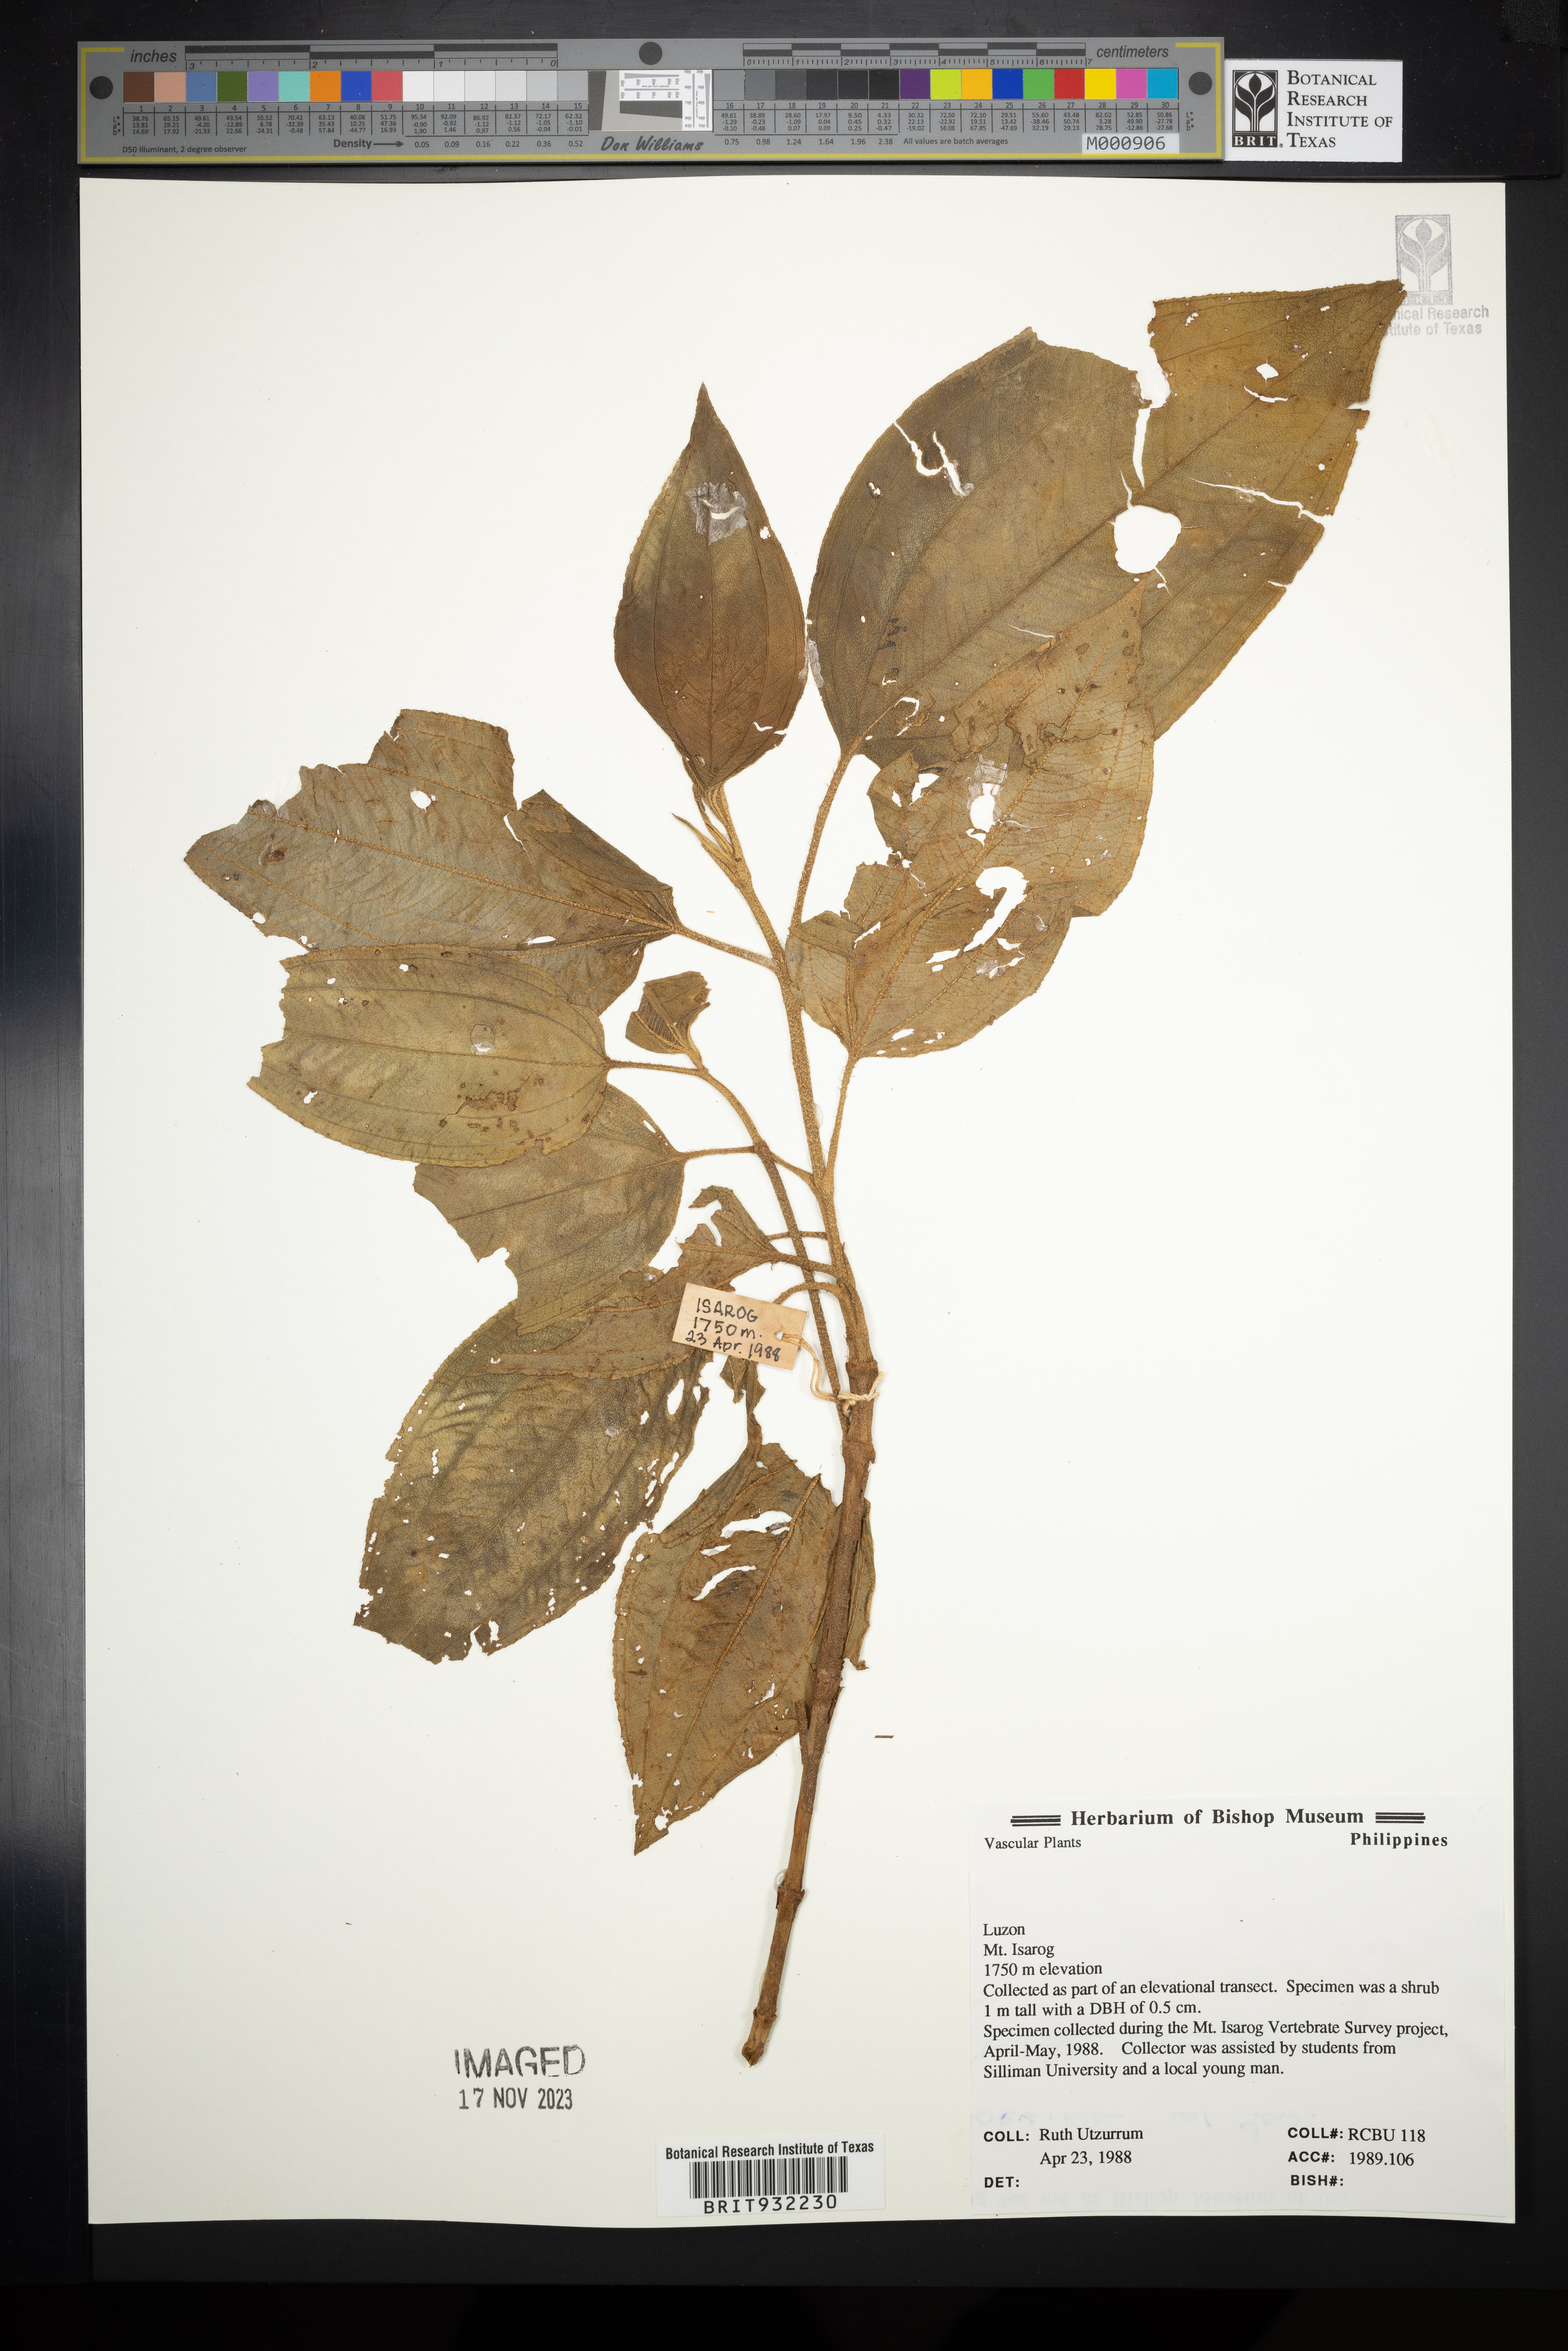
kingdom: Plantae
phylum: Tracheophyta
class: Magnoliopsida
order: Myrtales
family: Melastomataceae
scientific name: Melastomataceae
